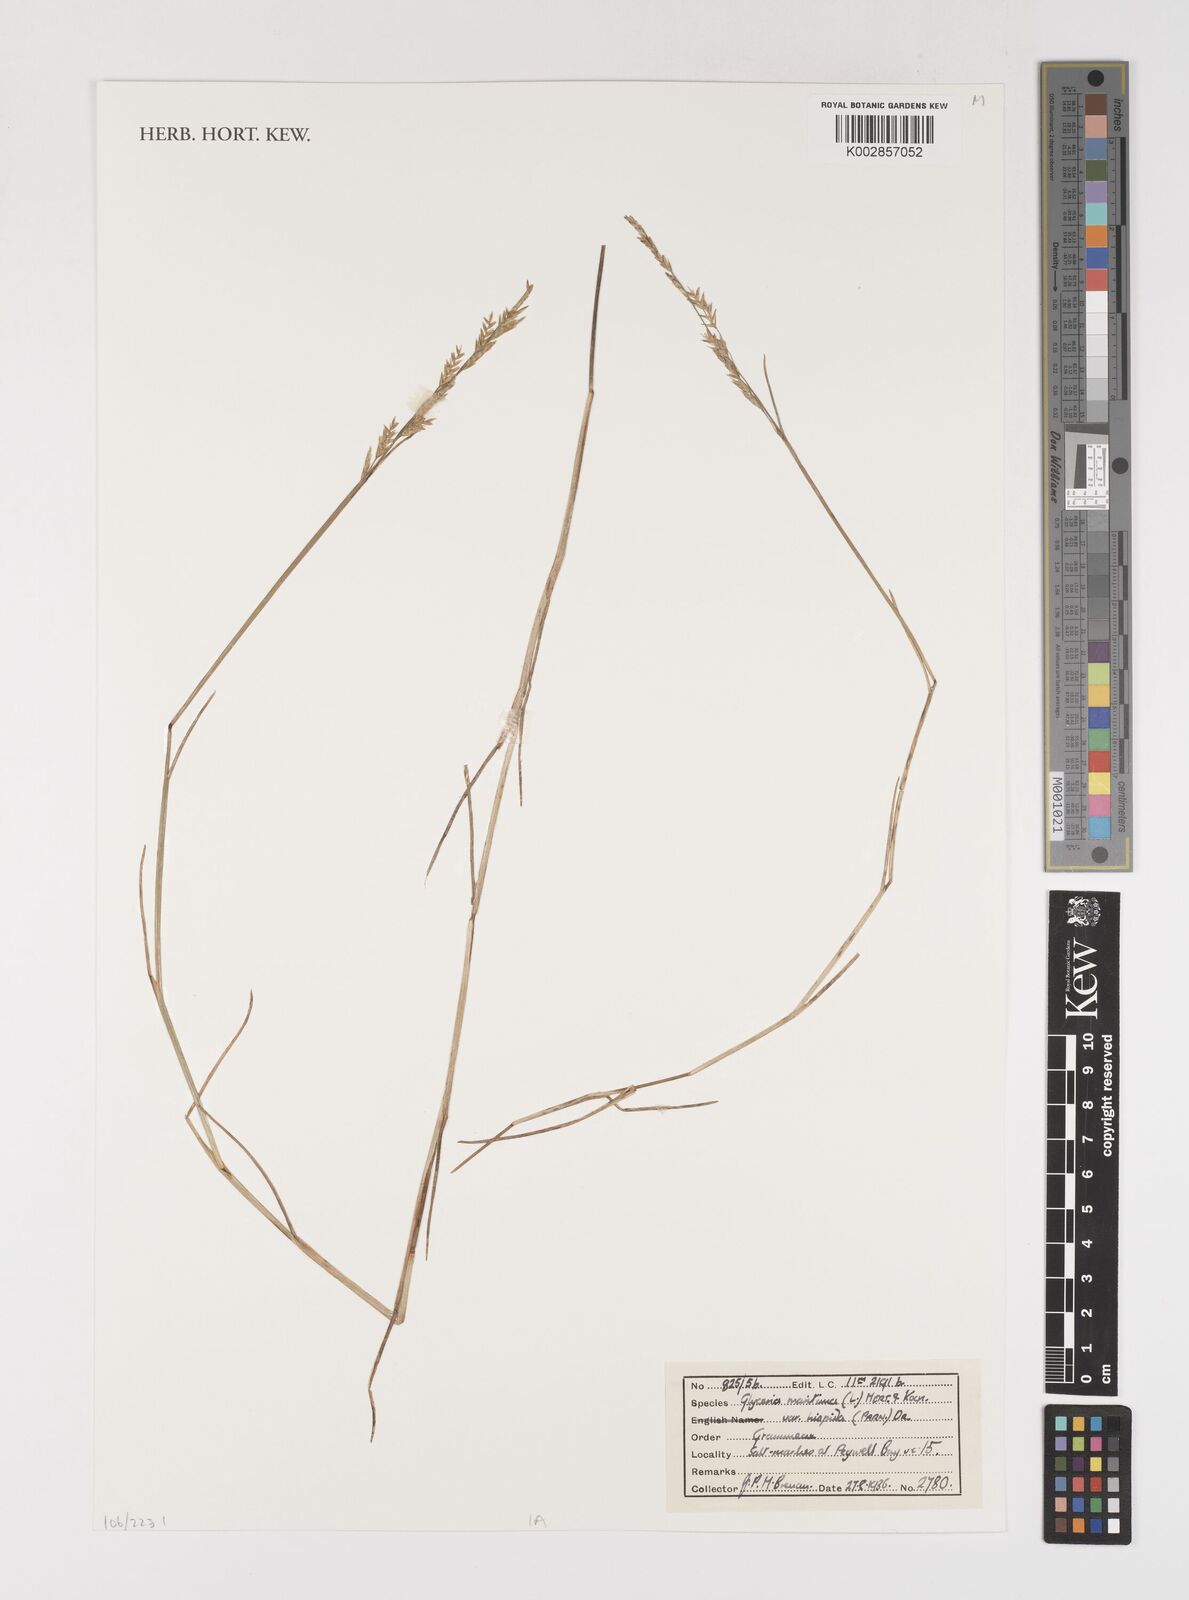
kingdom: Plantae
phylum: Tracheophyta
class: Liliopsida
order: Poales
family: Poaceae
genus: Puccinellia
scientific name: Puccinellia maritima
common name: Common saltmarsh grass
